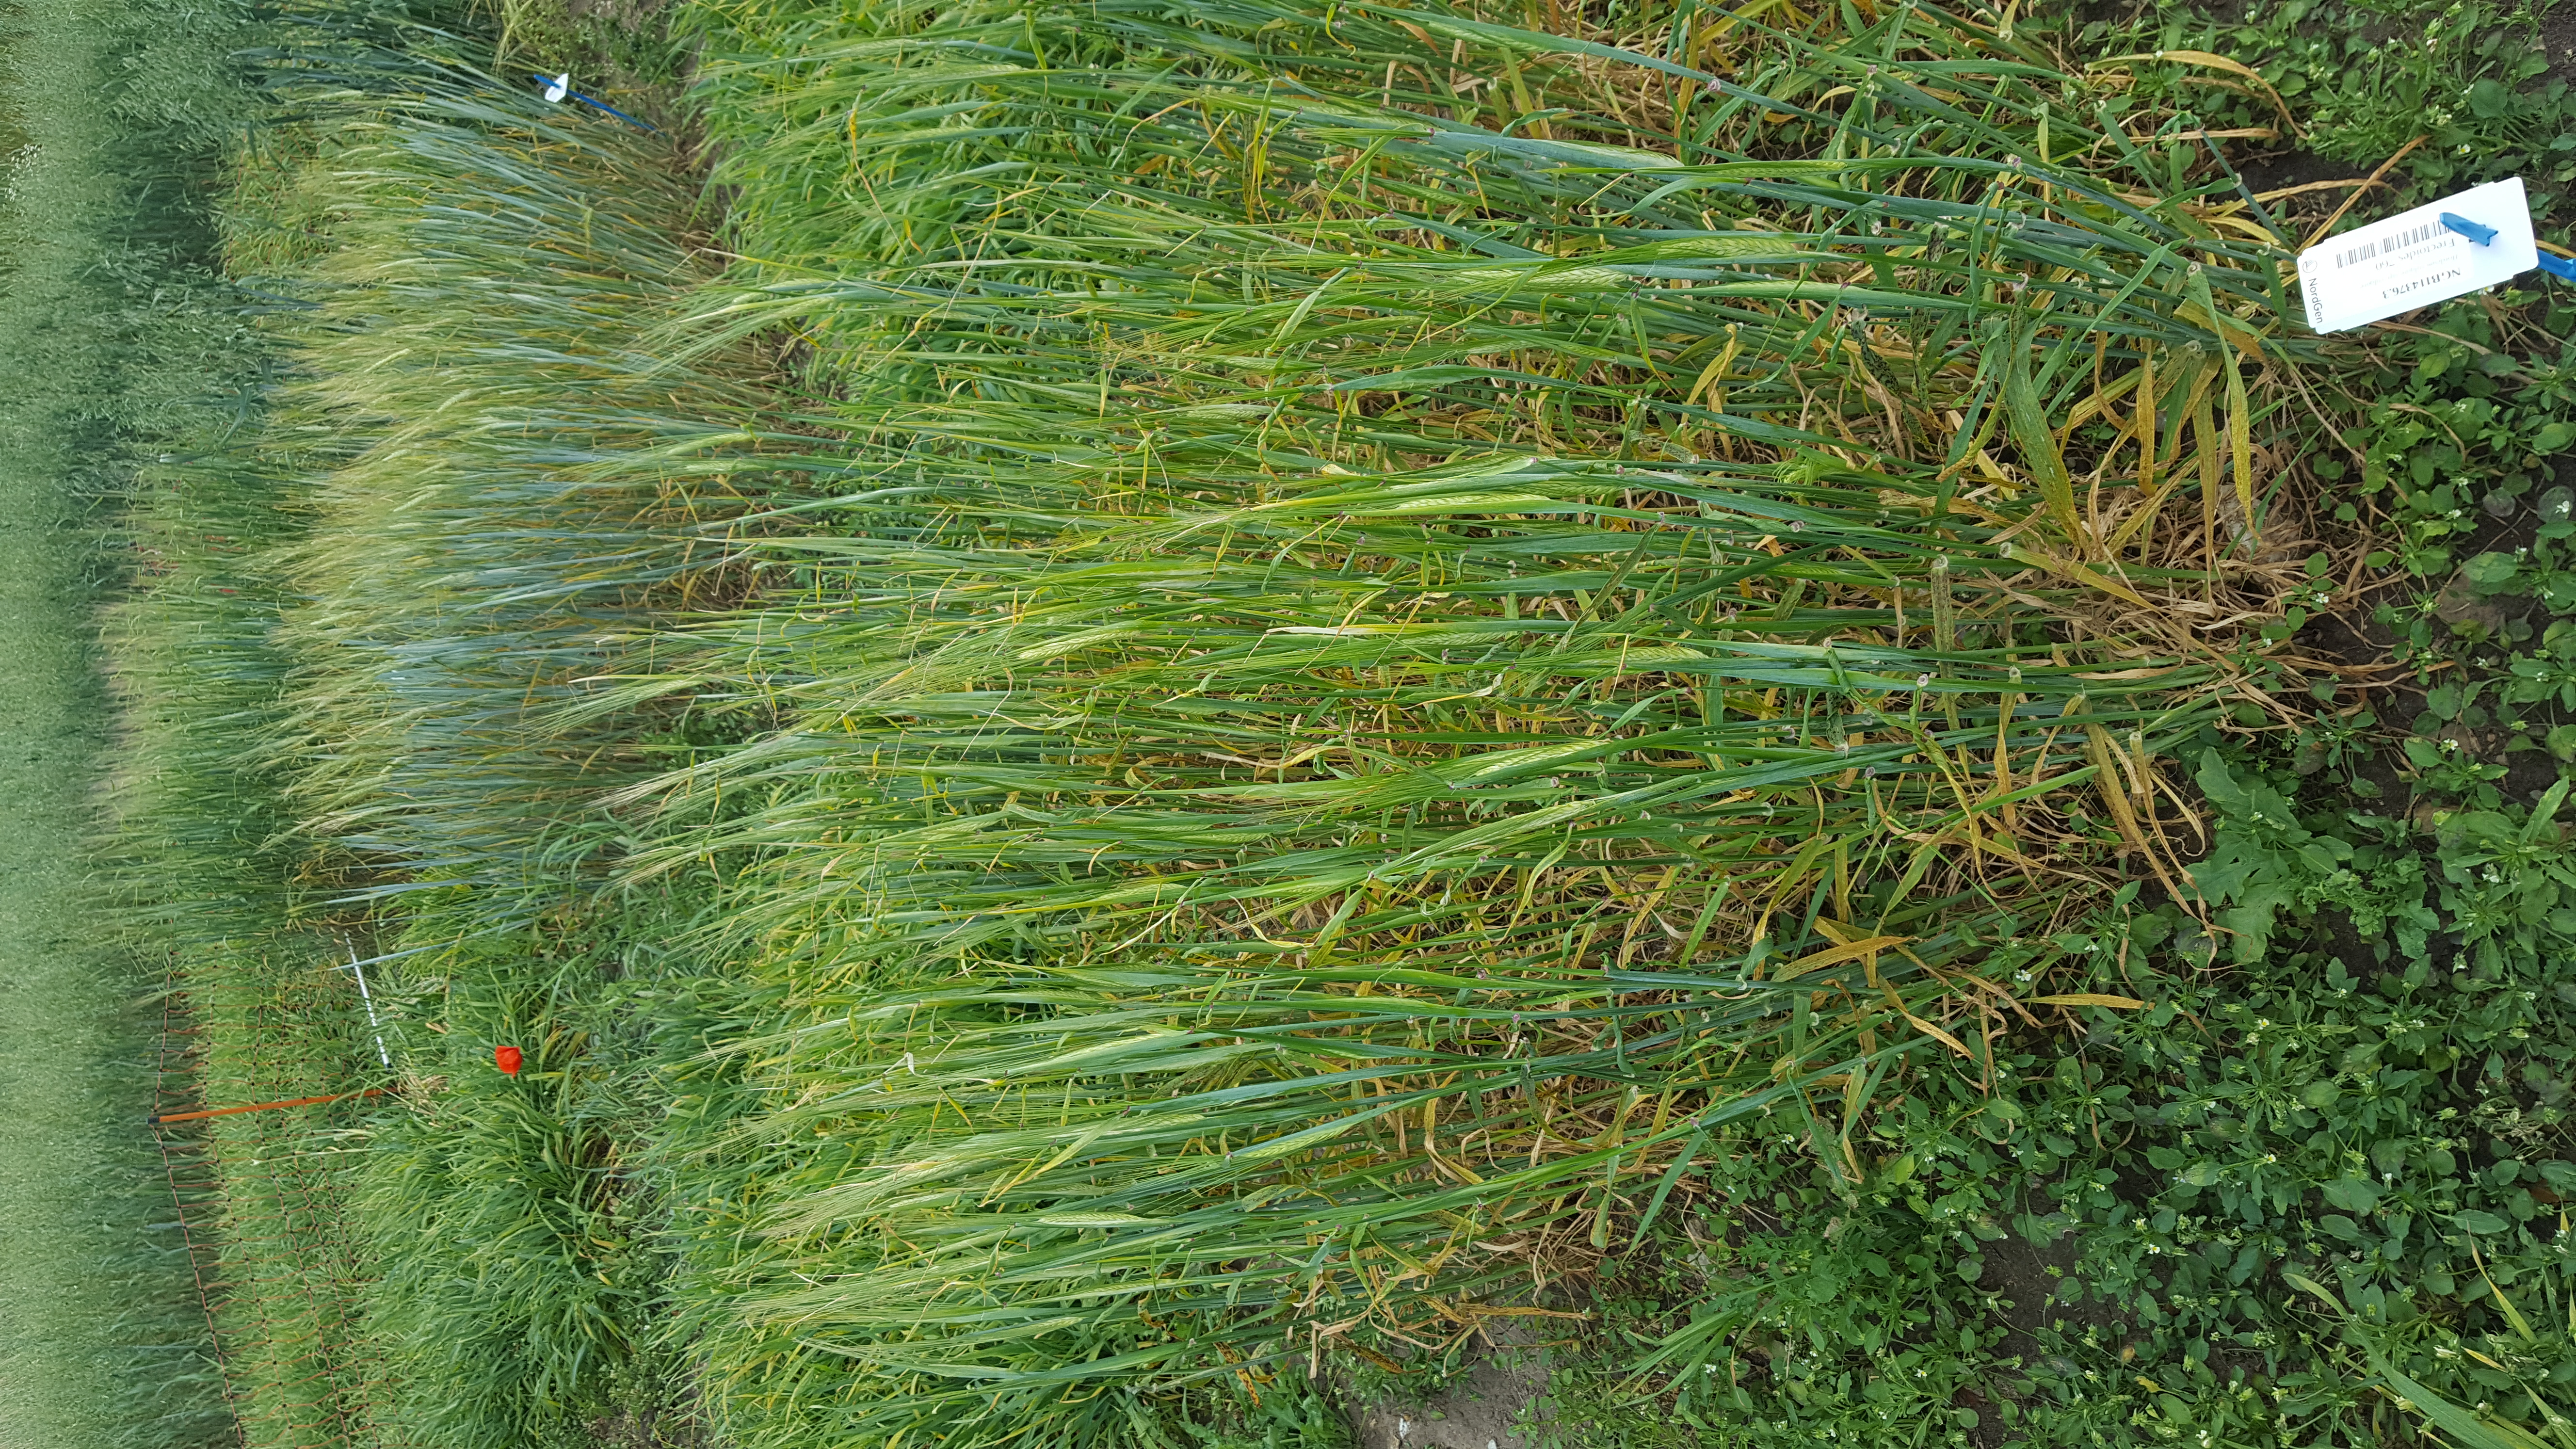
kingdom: Plantae
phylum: Tracheophyta
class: Liliopsida
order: Poales
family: Poaceae
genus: Hordeum
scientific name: Hordeum vulgare
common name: Common barley
